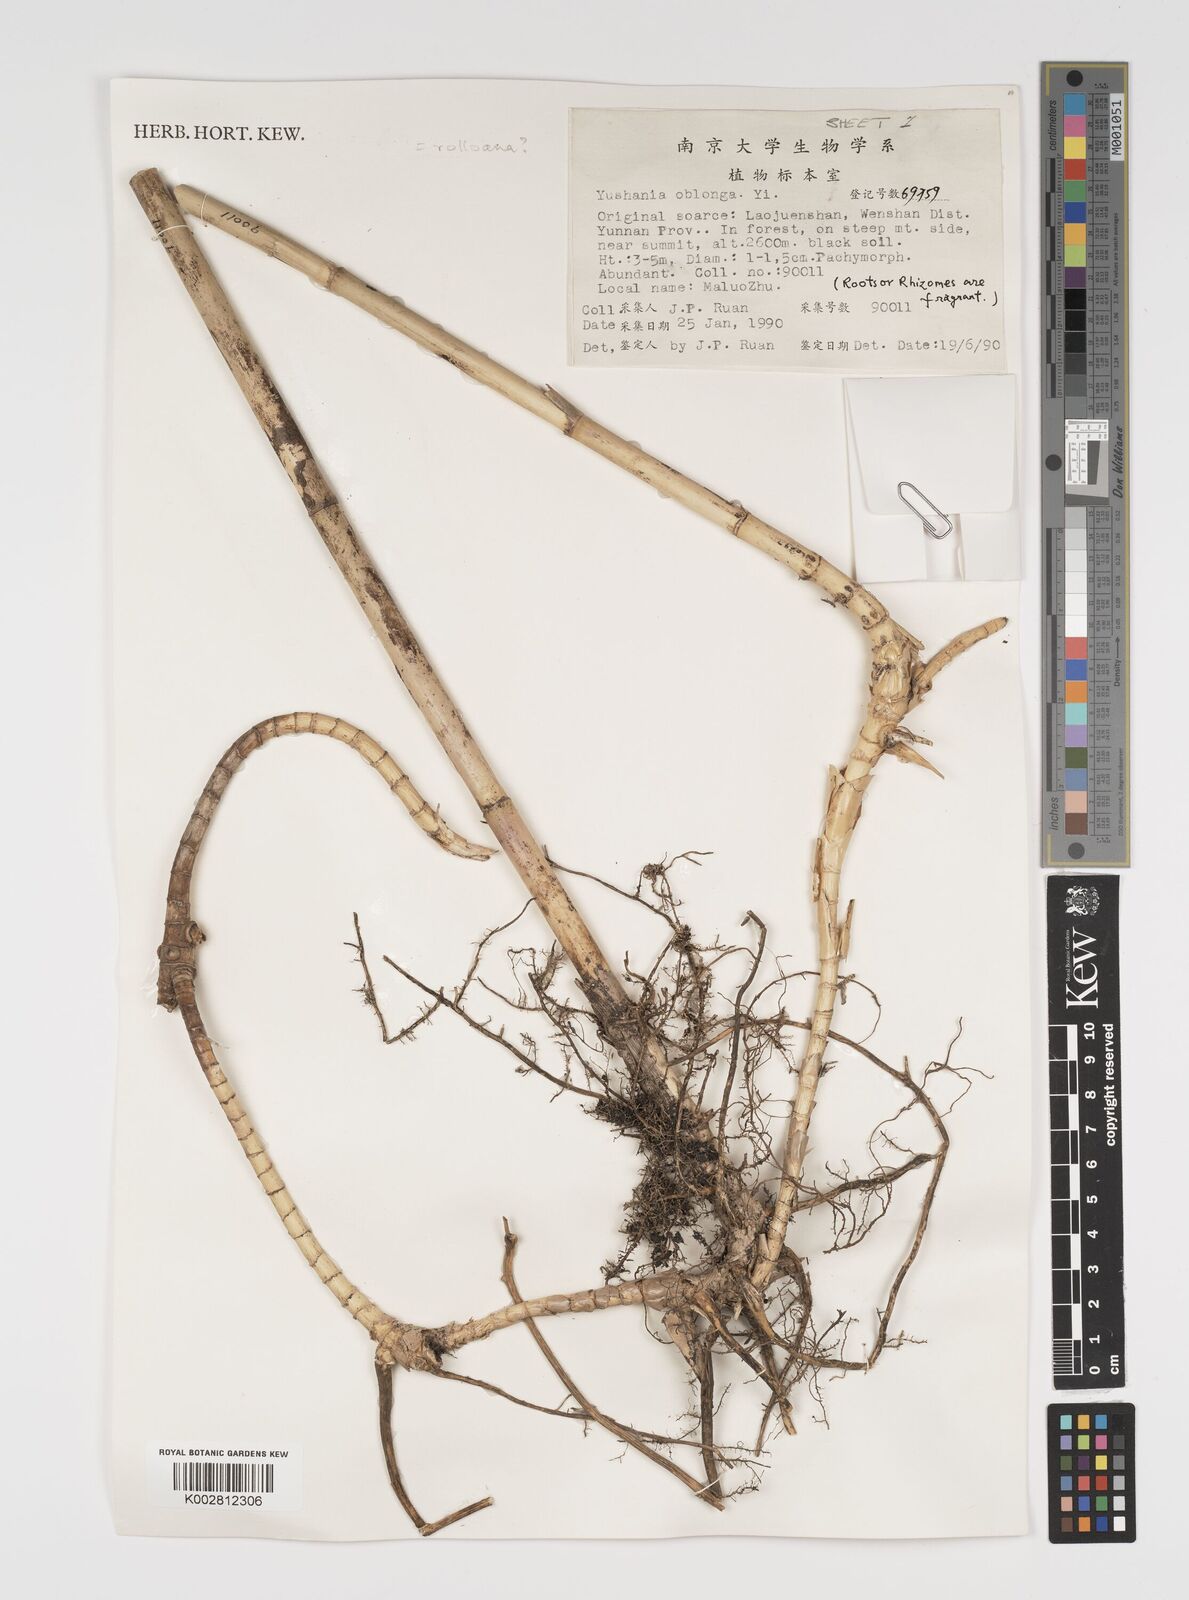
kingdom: Plantae
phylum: Tracheophyta
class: Liliopsida
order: Poales
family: Poaceae
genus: Yushania
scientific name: Yushania oblonga
